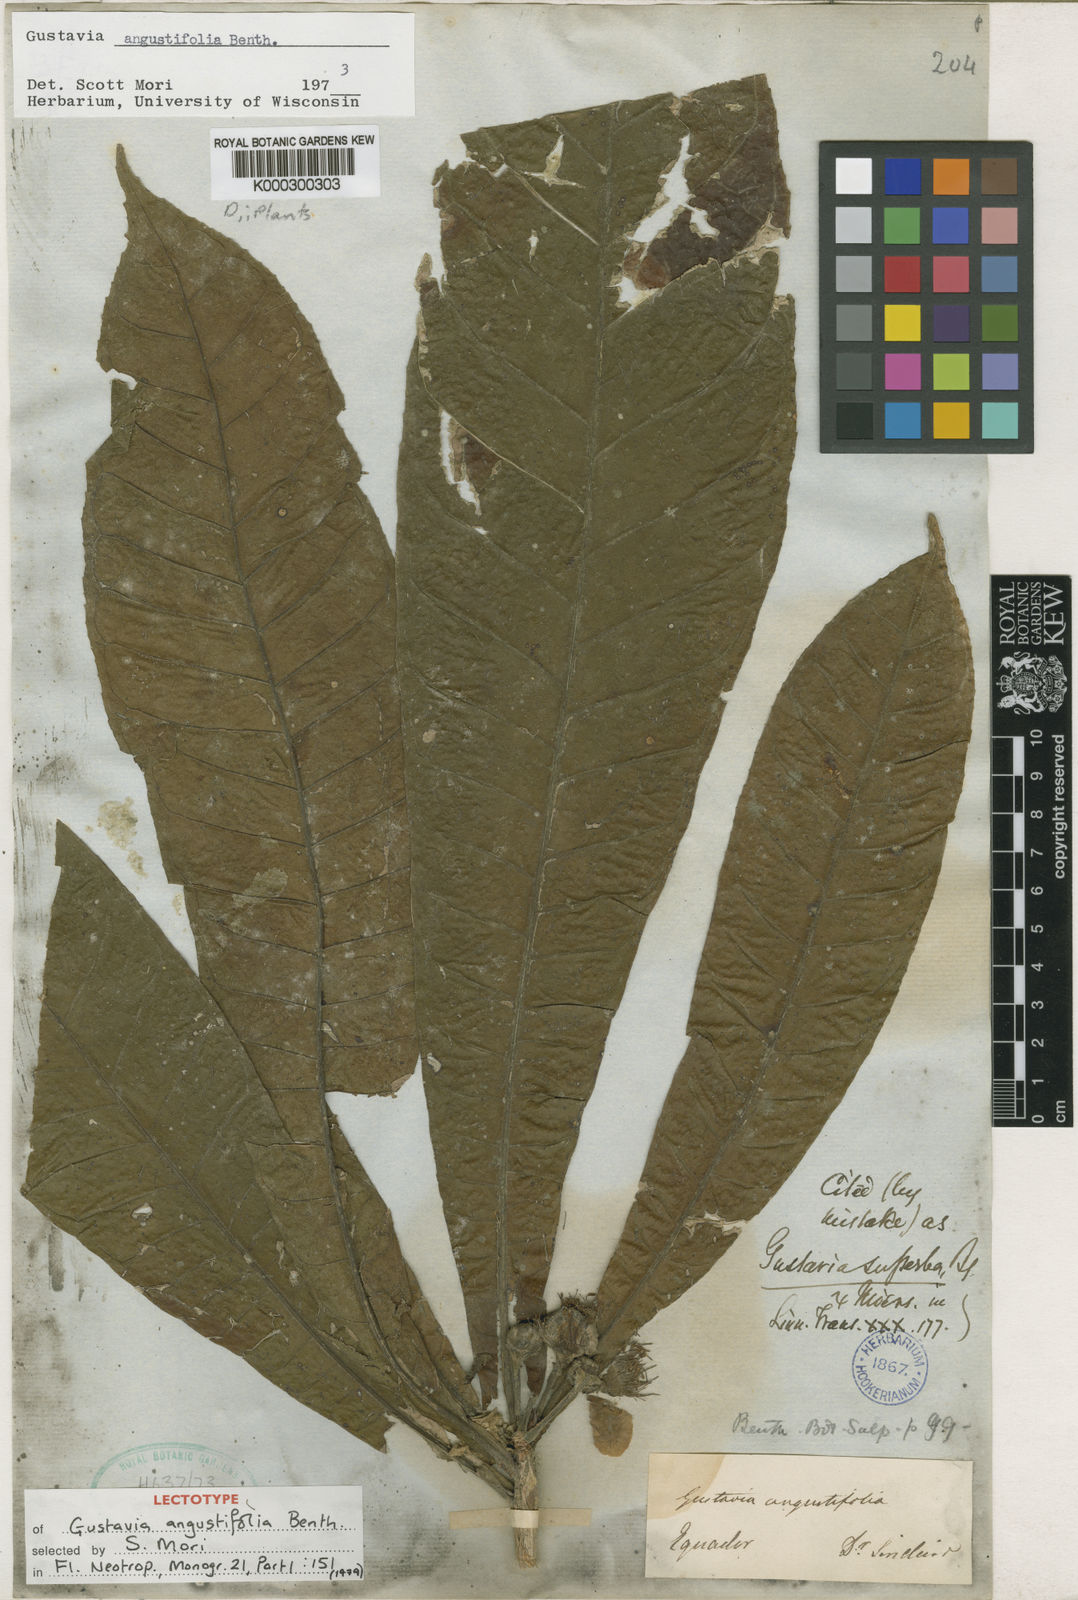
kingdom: Plantae
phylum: Tracheophyta
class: Magnoliopsida
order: Ericales
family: Lecythidaceae
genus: Gustavia
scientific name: Gustavia angustifolia
